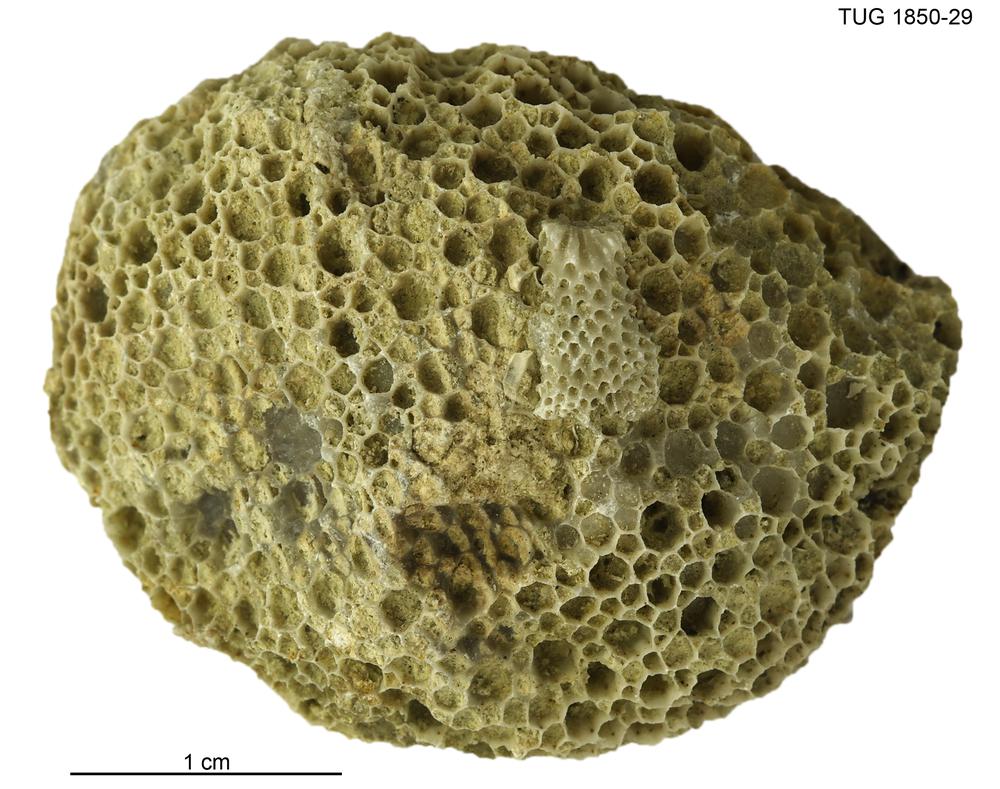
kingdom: Animalia
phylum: Cnidaria
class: Anthozoa
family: Favositidae
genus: Favosites
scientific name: Favosites
